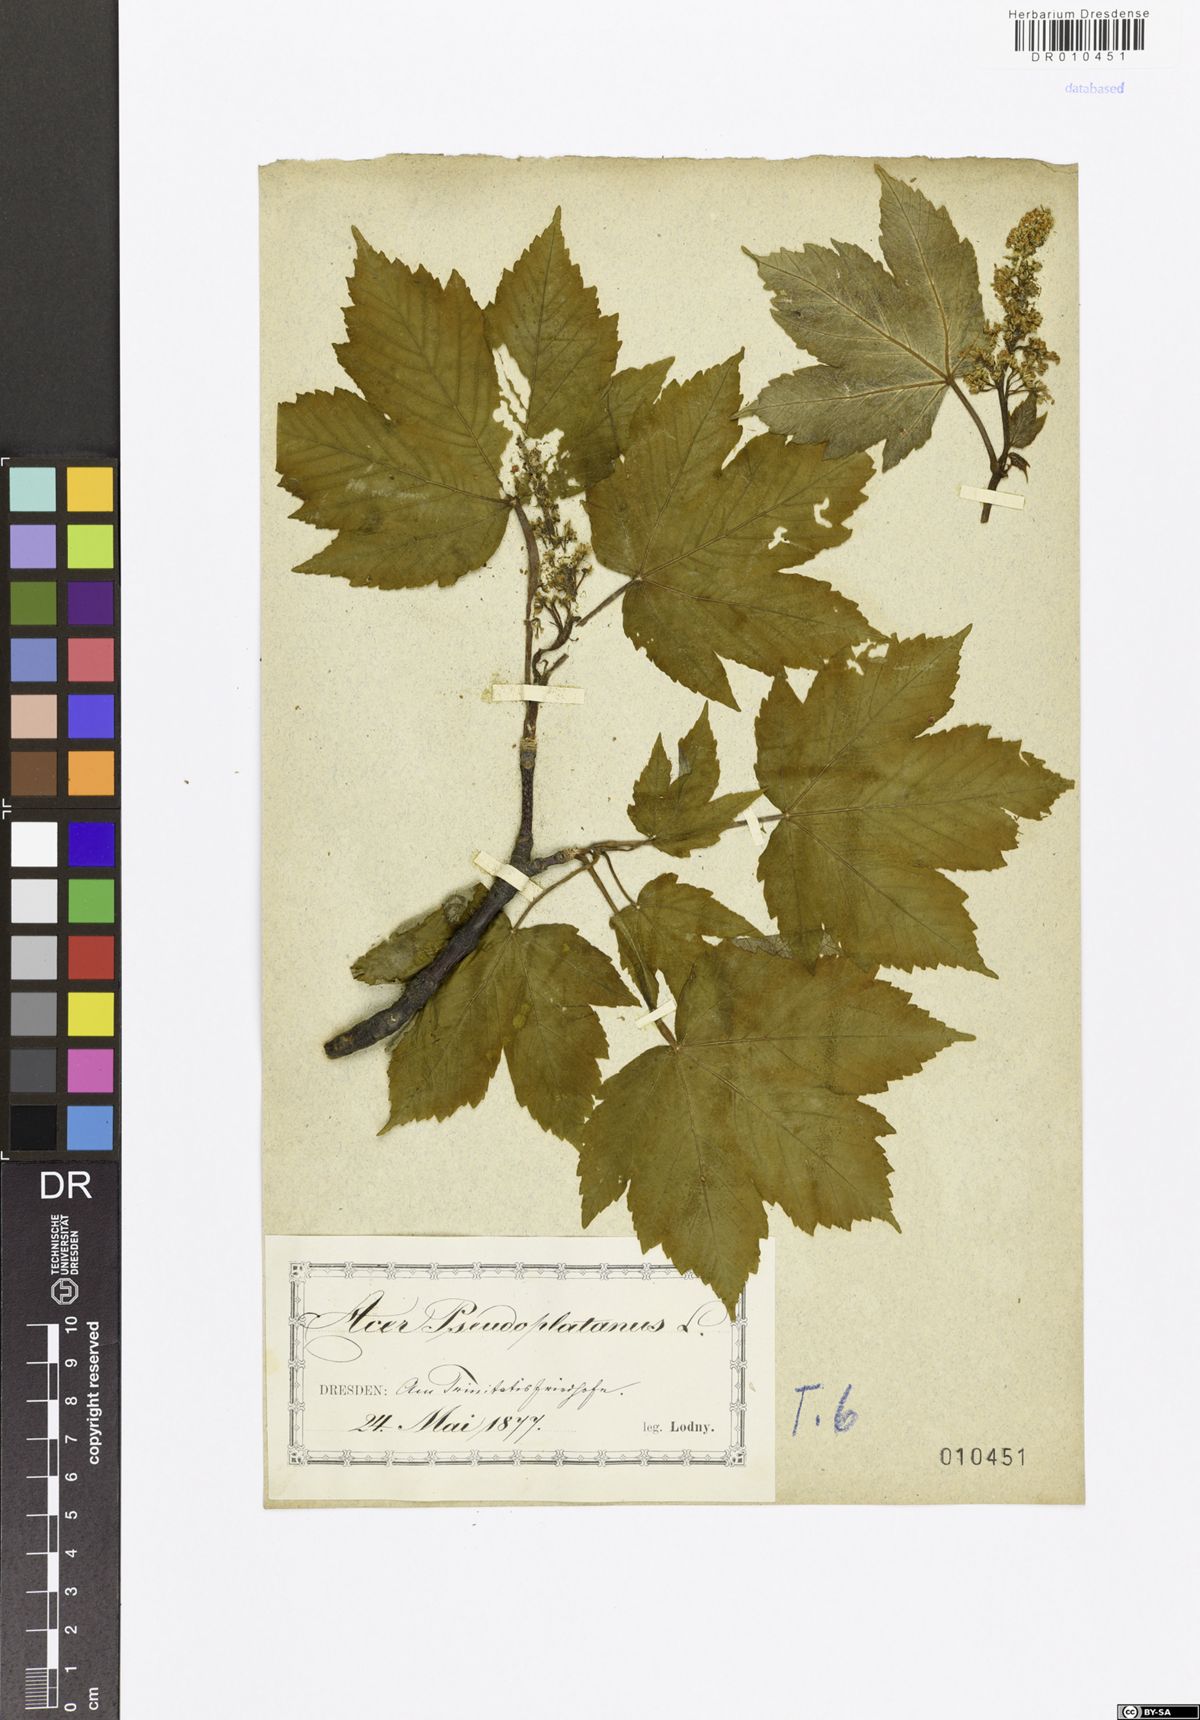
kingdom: Plantae
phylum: Tracheophyta
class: Magnoliopsida
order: Sapindales
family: Sapindaceae
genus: Acer
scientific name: Acer pseudoplatanus
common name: Sycamore
